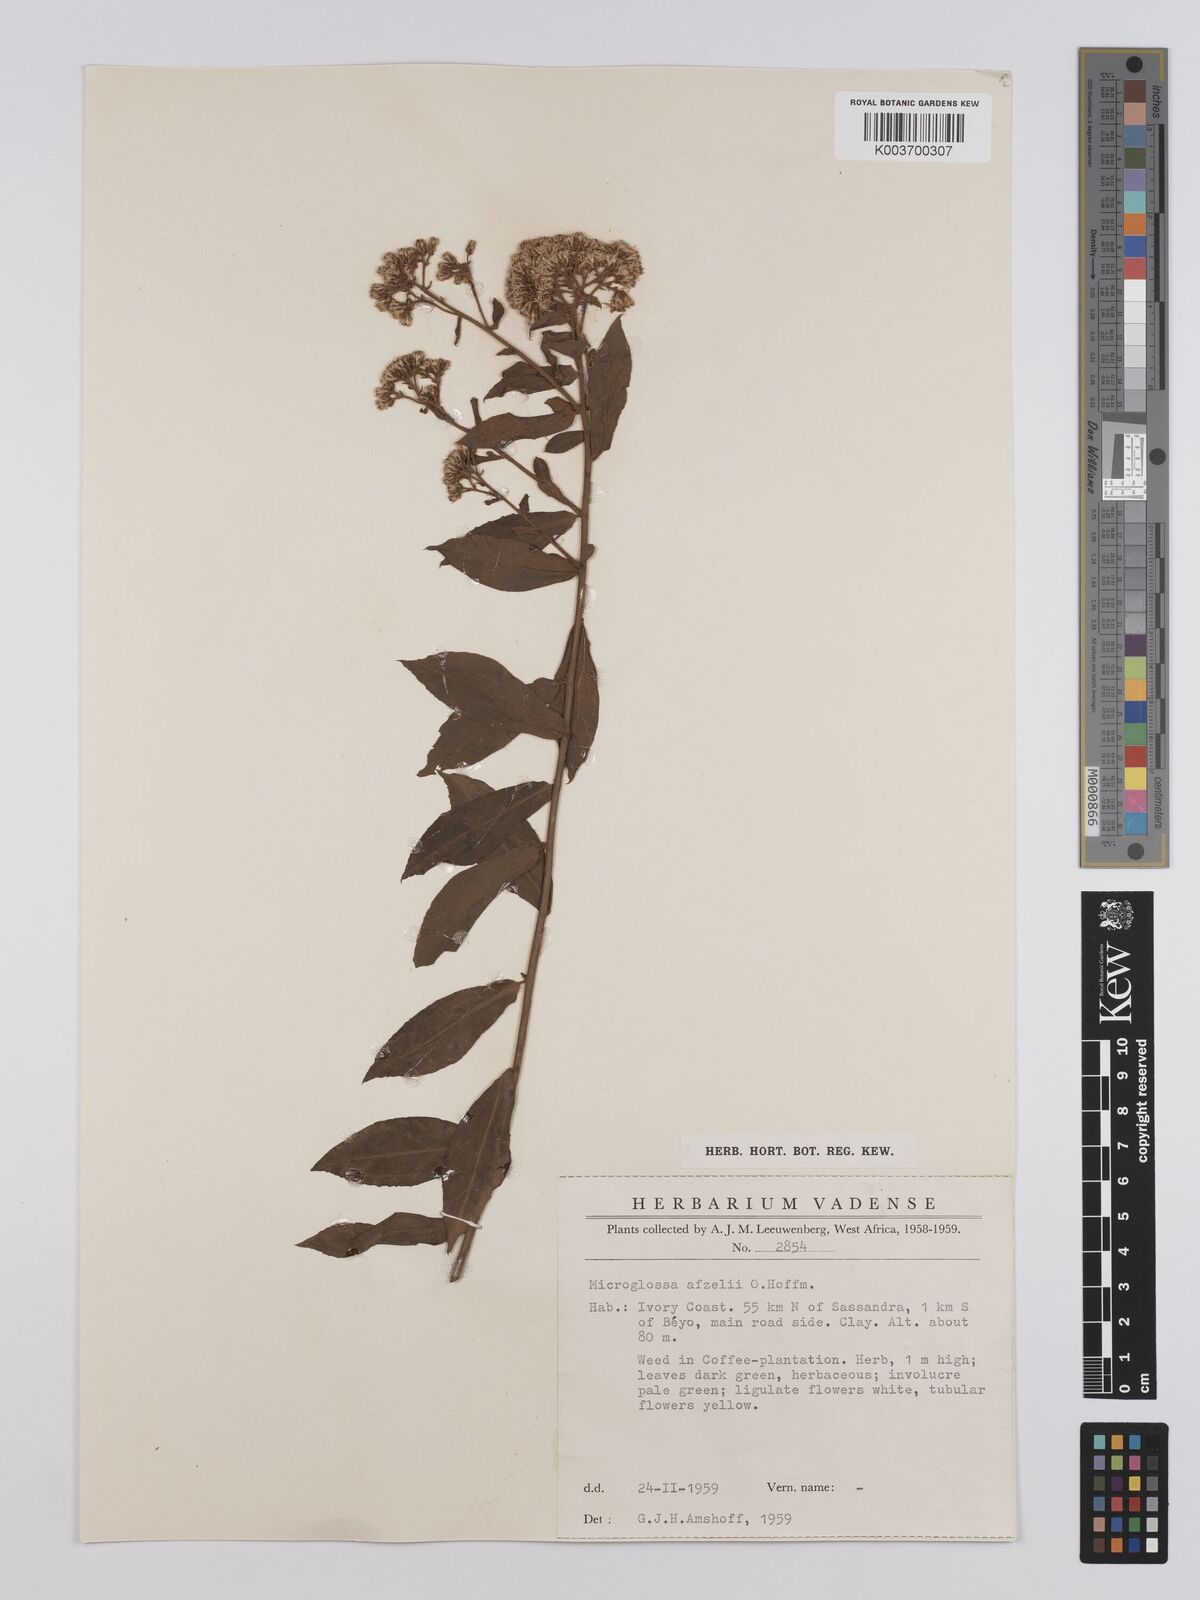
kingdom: Plantae
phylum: Tracheophyta
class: Magnoliopsida
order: Asterales
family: Asteraceae
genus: Microglossa
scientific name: Microglossa afzelii
